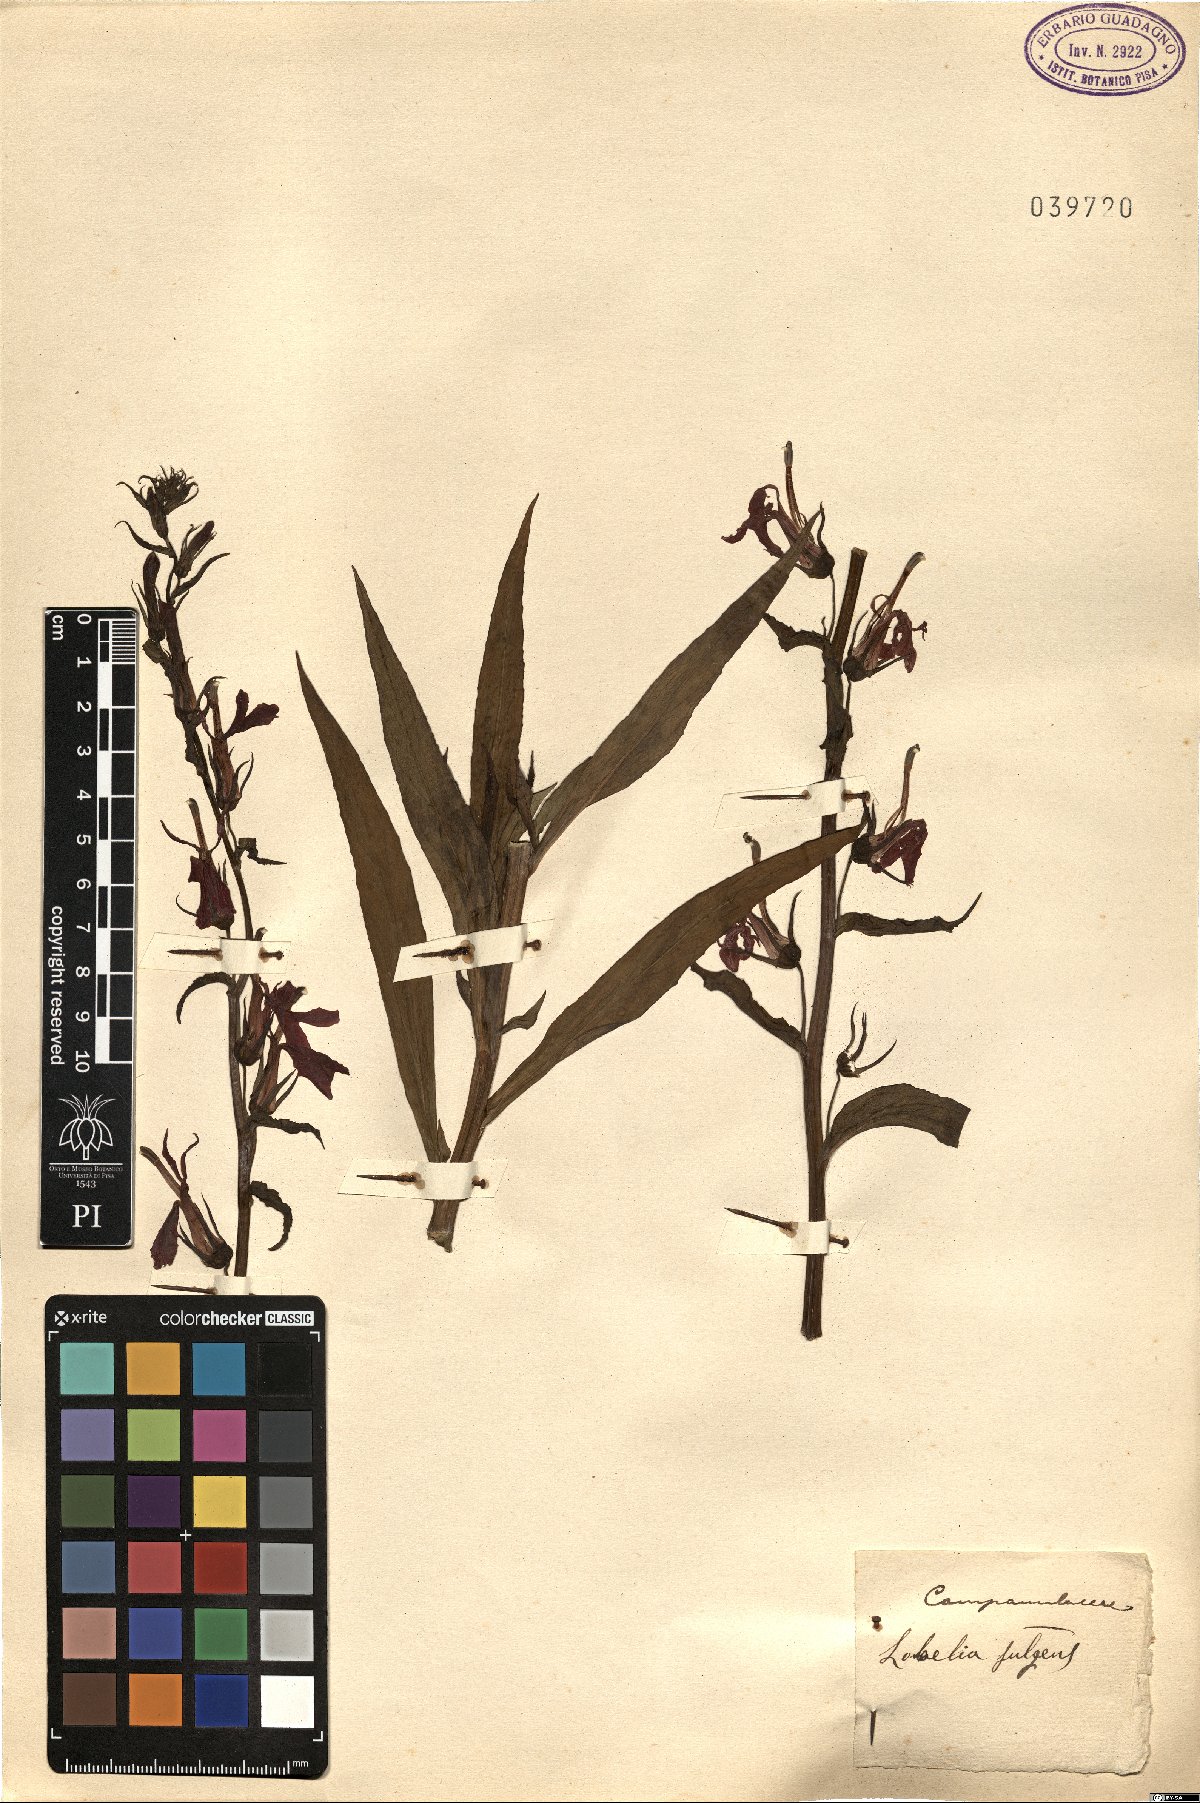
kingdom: Plantae
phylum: Tracheophyta
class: Magnoliopsida
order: Asterales
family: Campanulaceae
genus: Lobelia
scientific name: Lobelia cardinalis
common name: Cardinal flower
